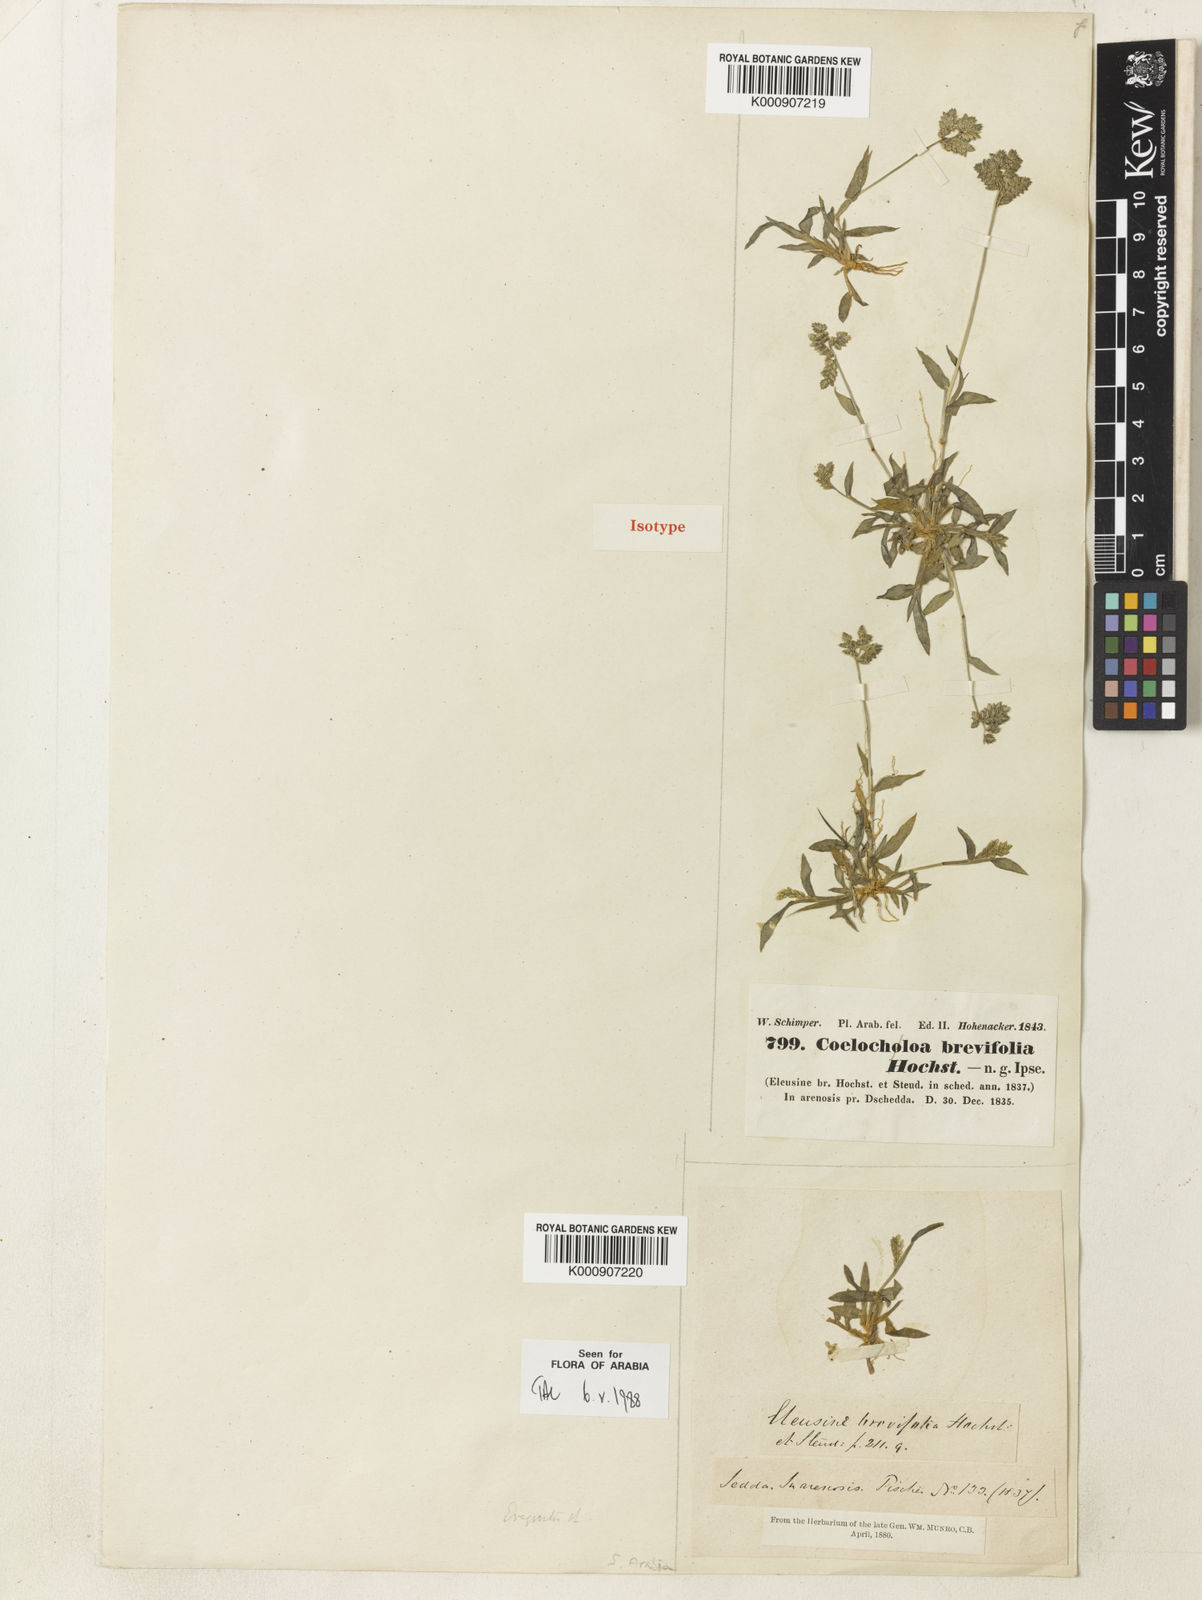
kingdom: Plantae
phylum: Tracheophyta
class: Liliopsida
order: Poales
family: Poaceae
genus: Coelachyrum
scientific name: Coelachyrum brevifolium
